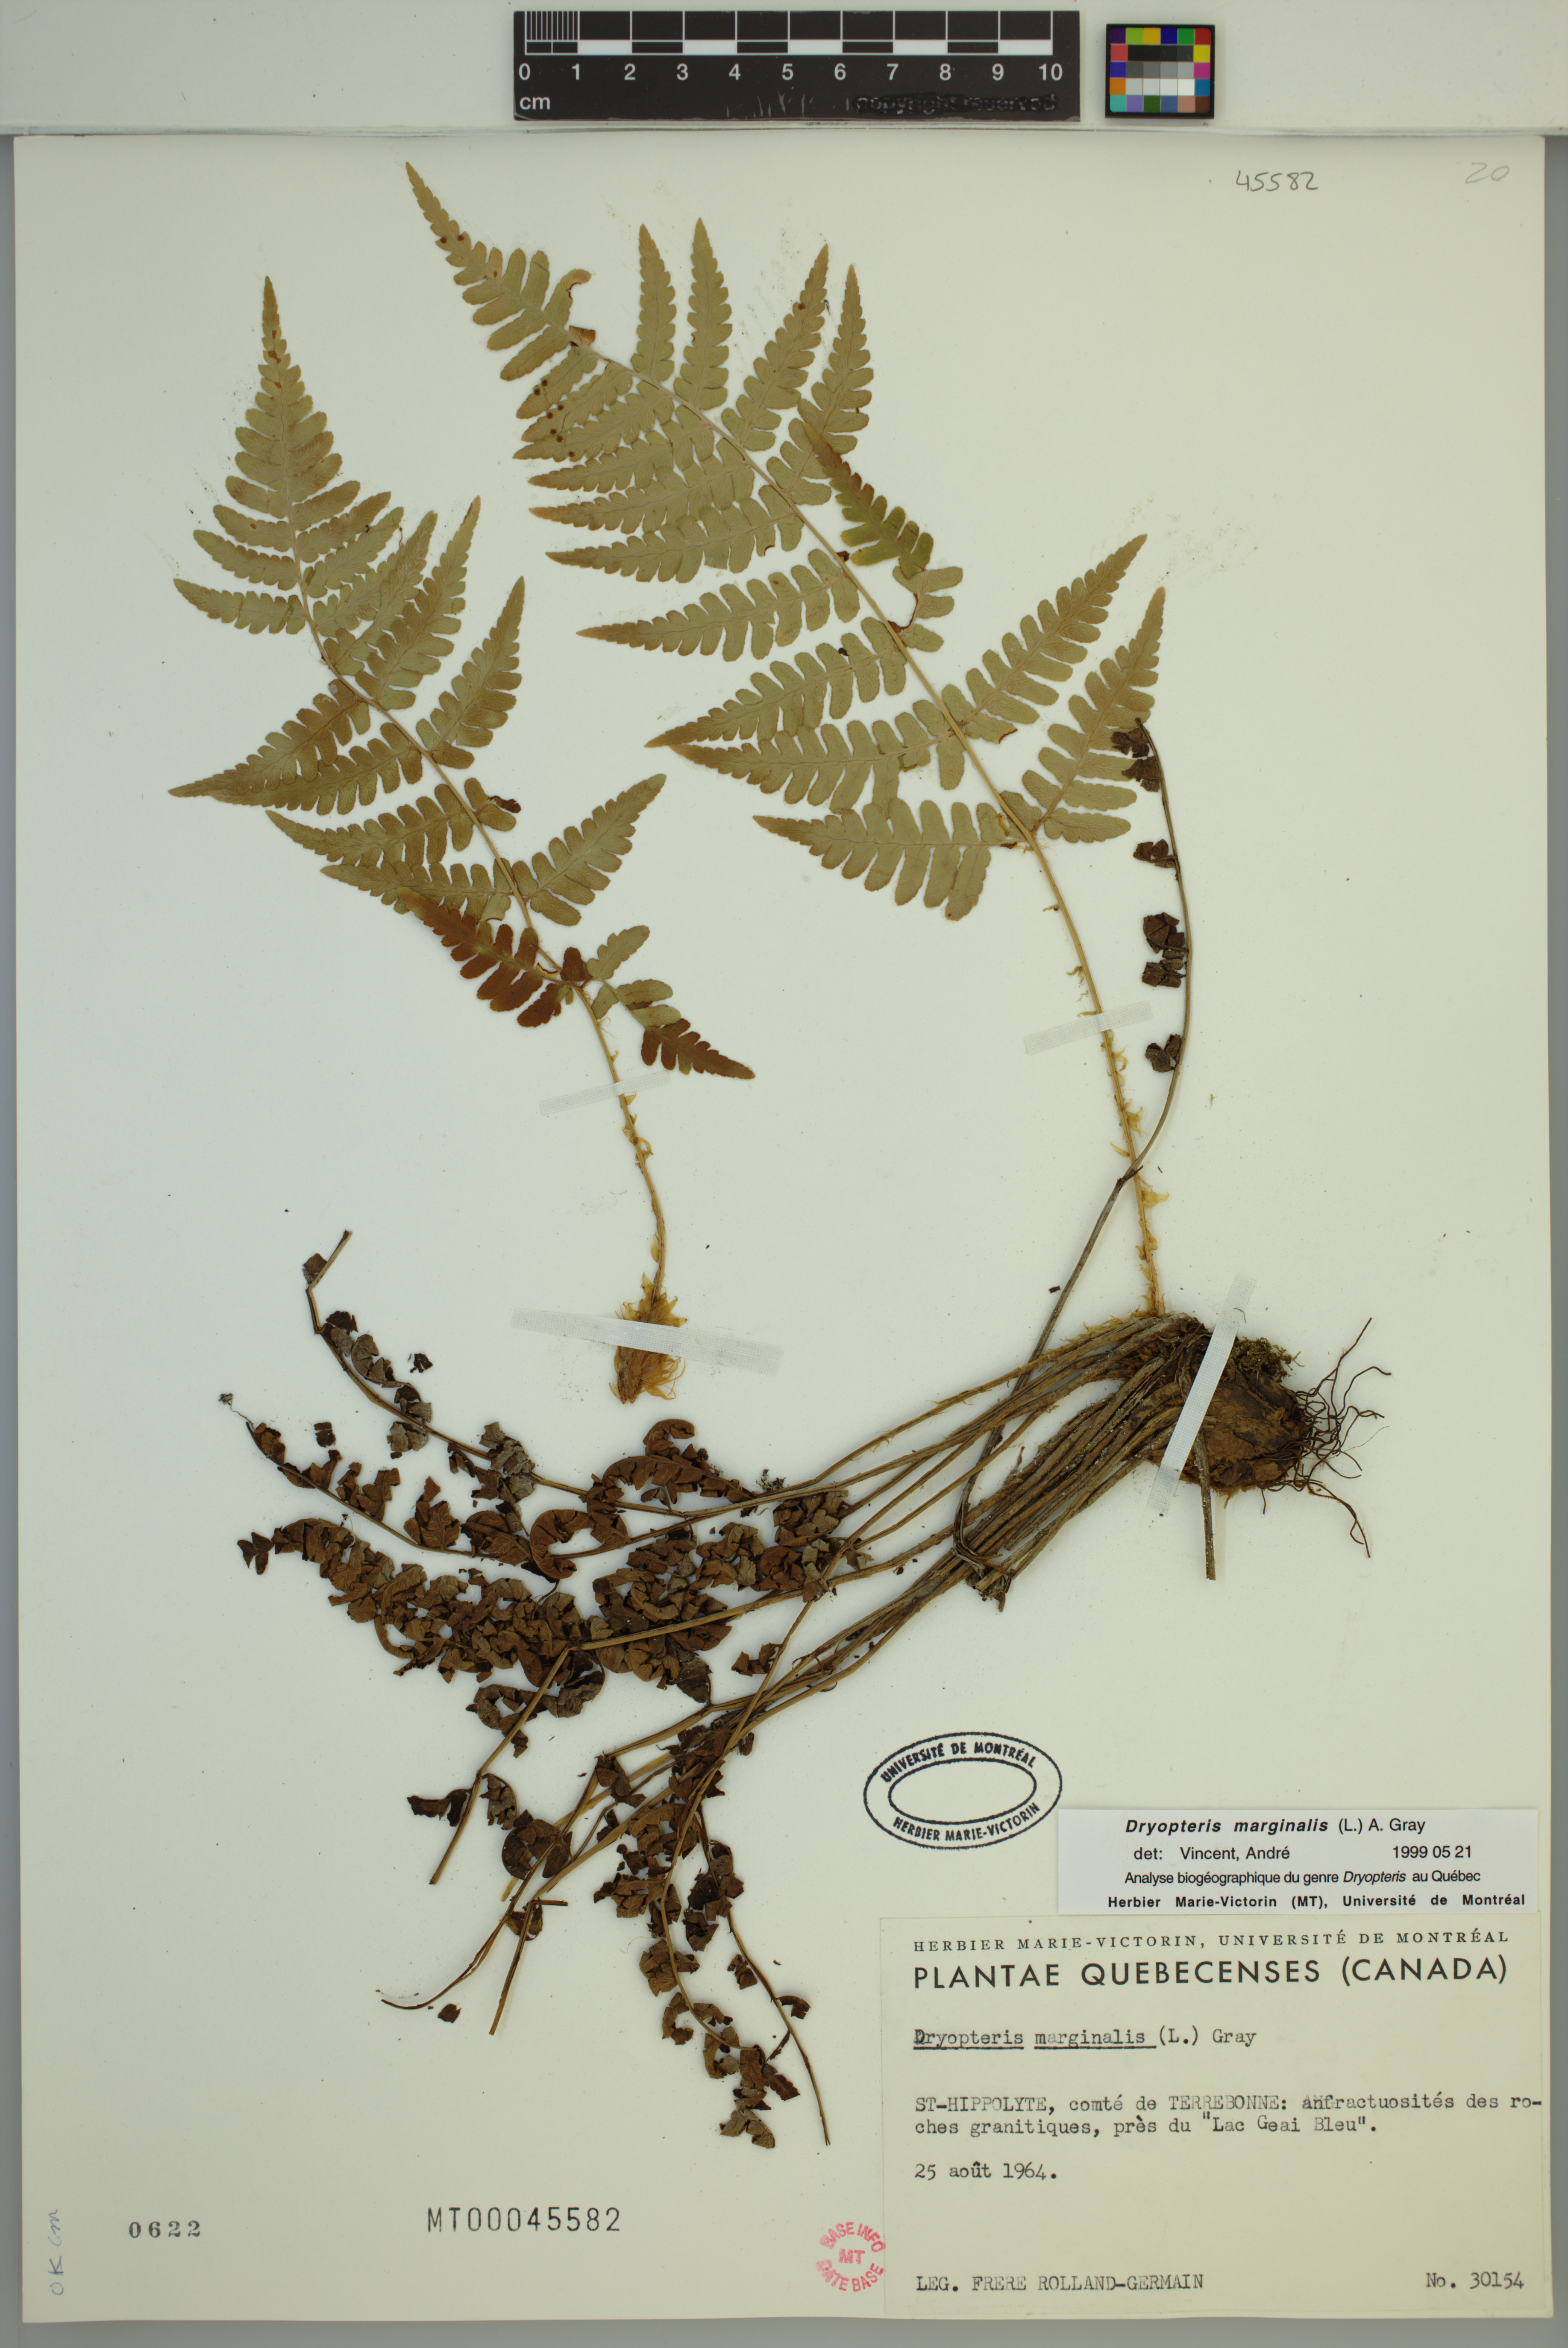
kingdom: Plantae
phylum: Tracheophyta
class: Polypodiopsida
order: Polypodiales
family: Dryopteridaceae
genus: Dryopteris
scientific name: Dryopteris marginalis
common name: Marginal wood fern
